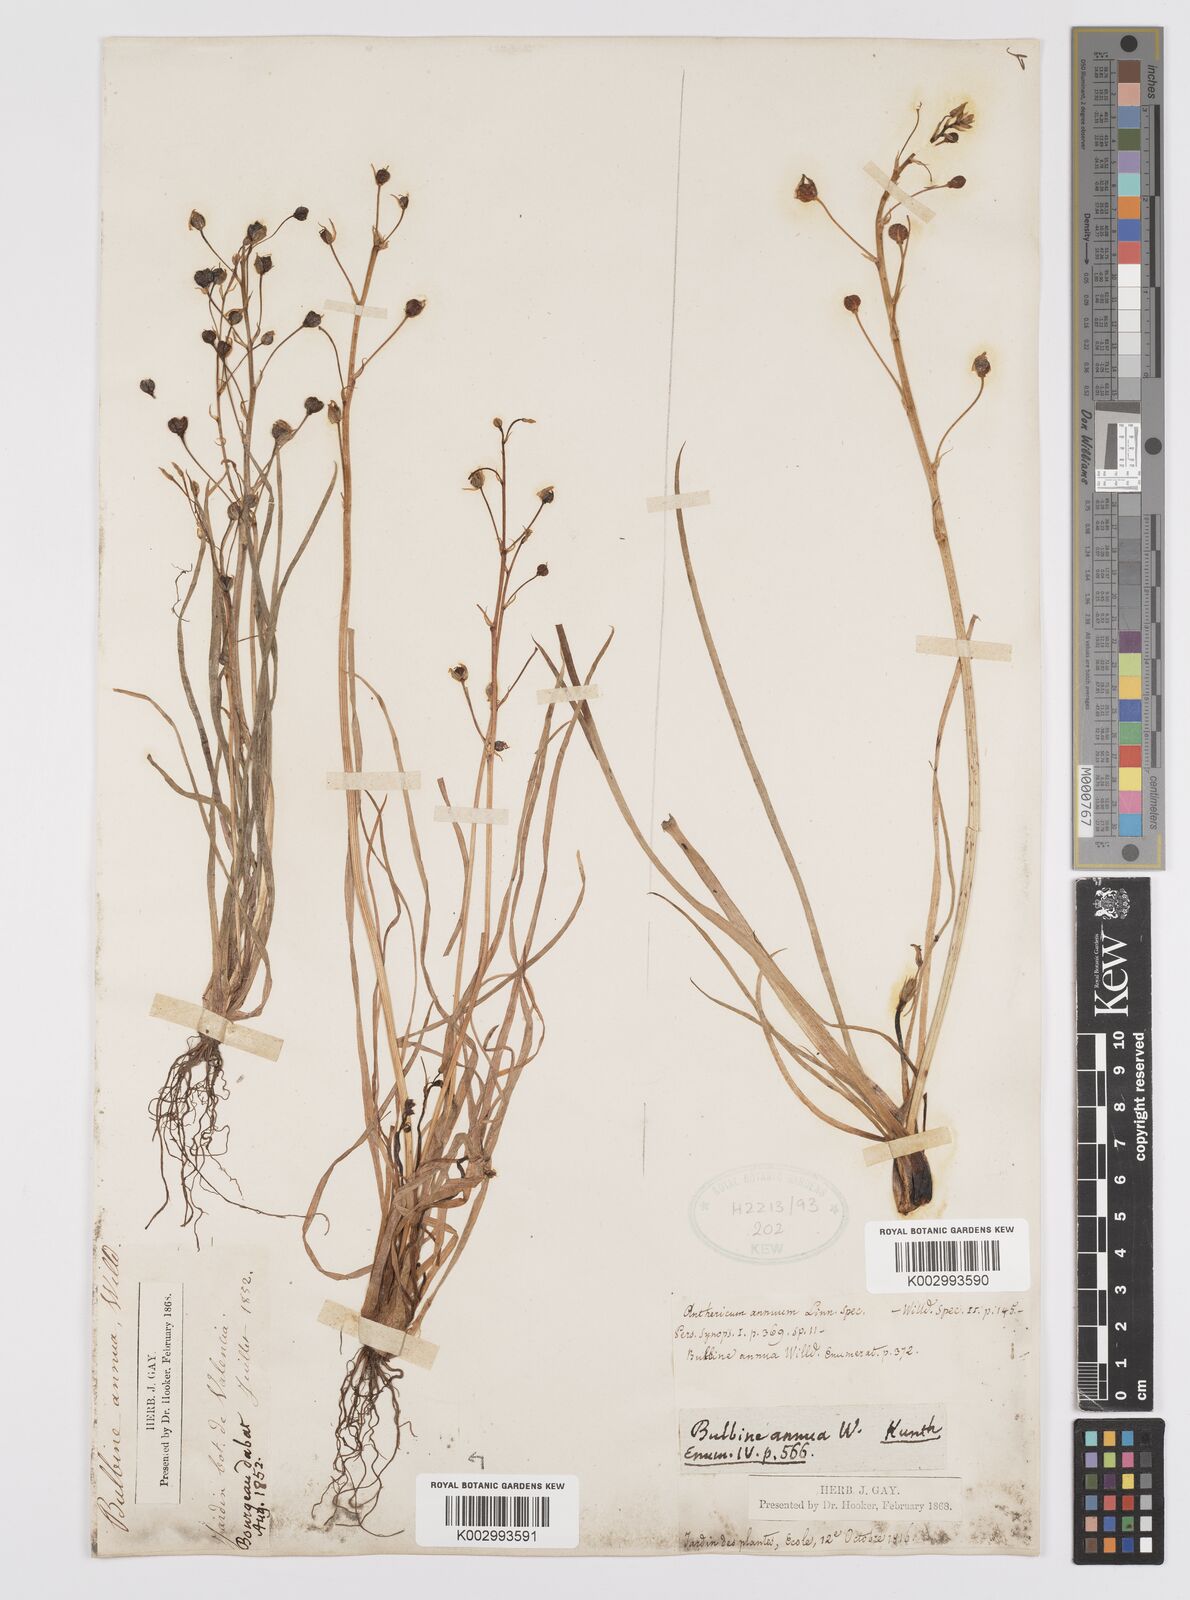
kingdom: Plantae
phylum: Tracheophyta
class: Liliopsida
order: Asparagales
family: Asphodelaceae
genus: Bulbine
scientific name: Bulbine annua
